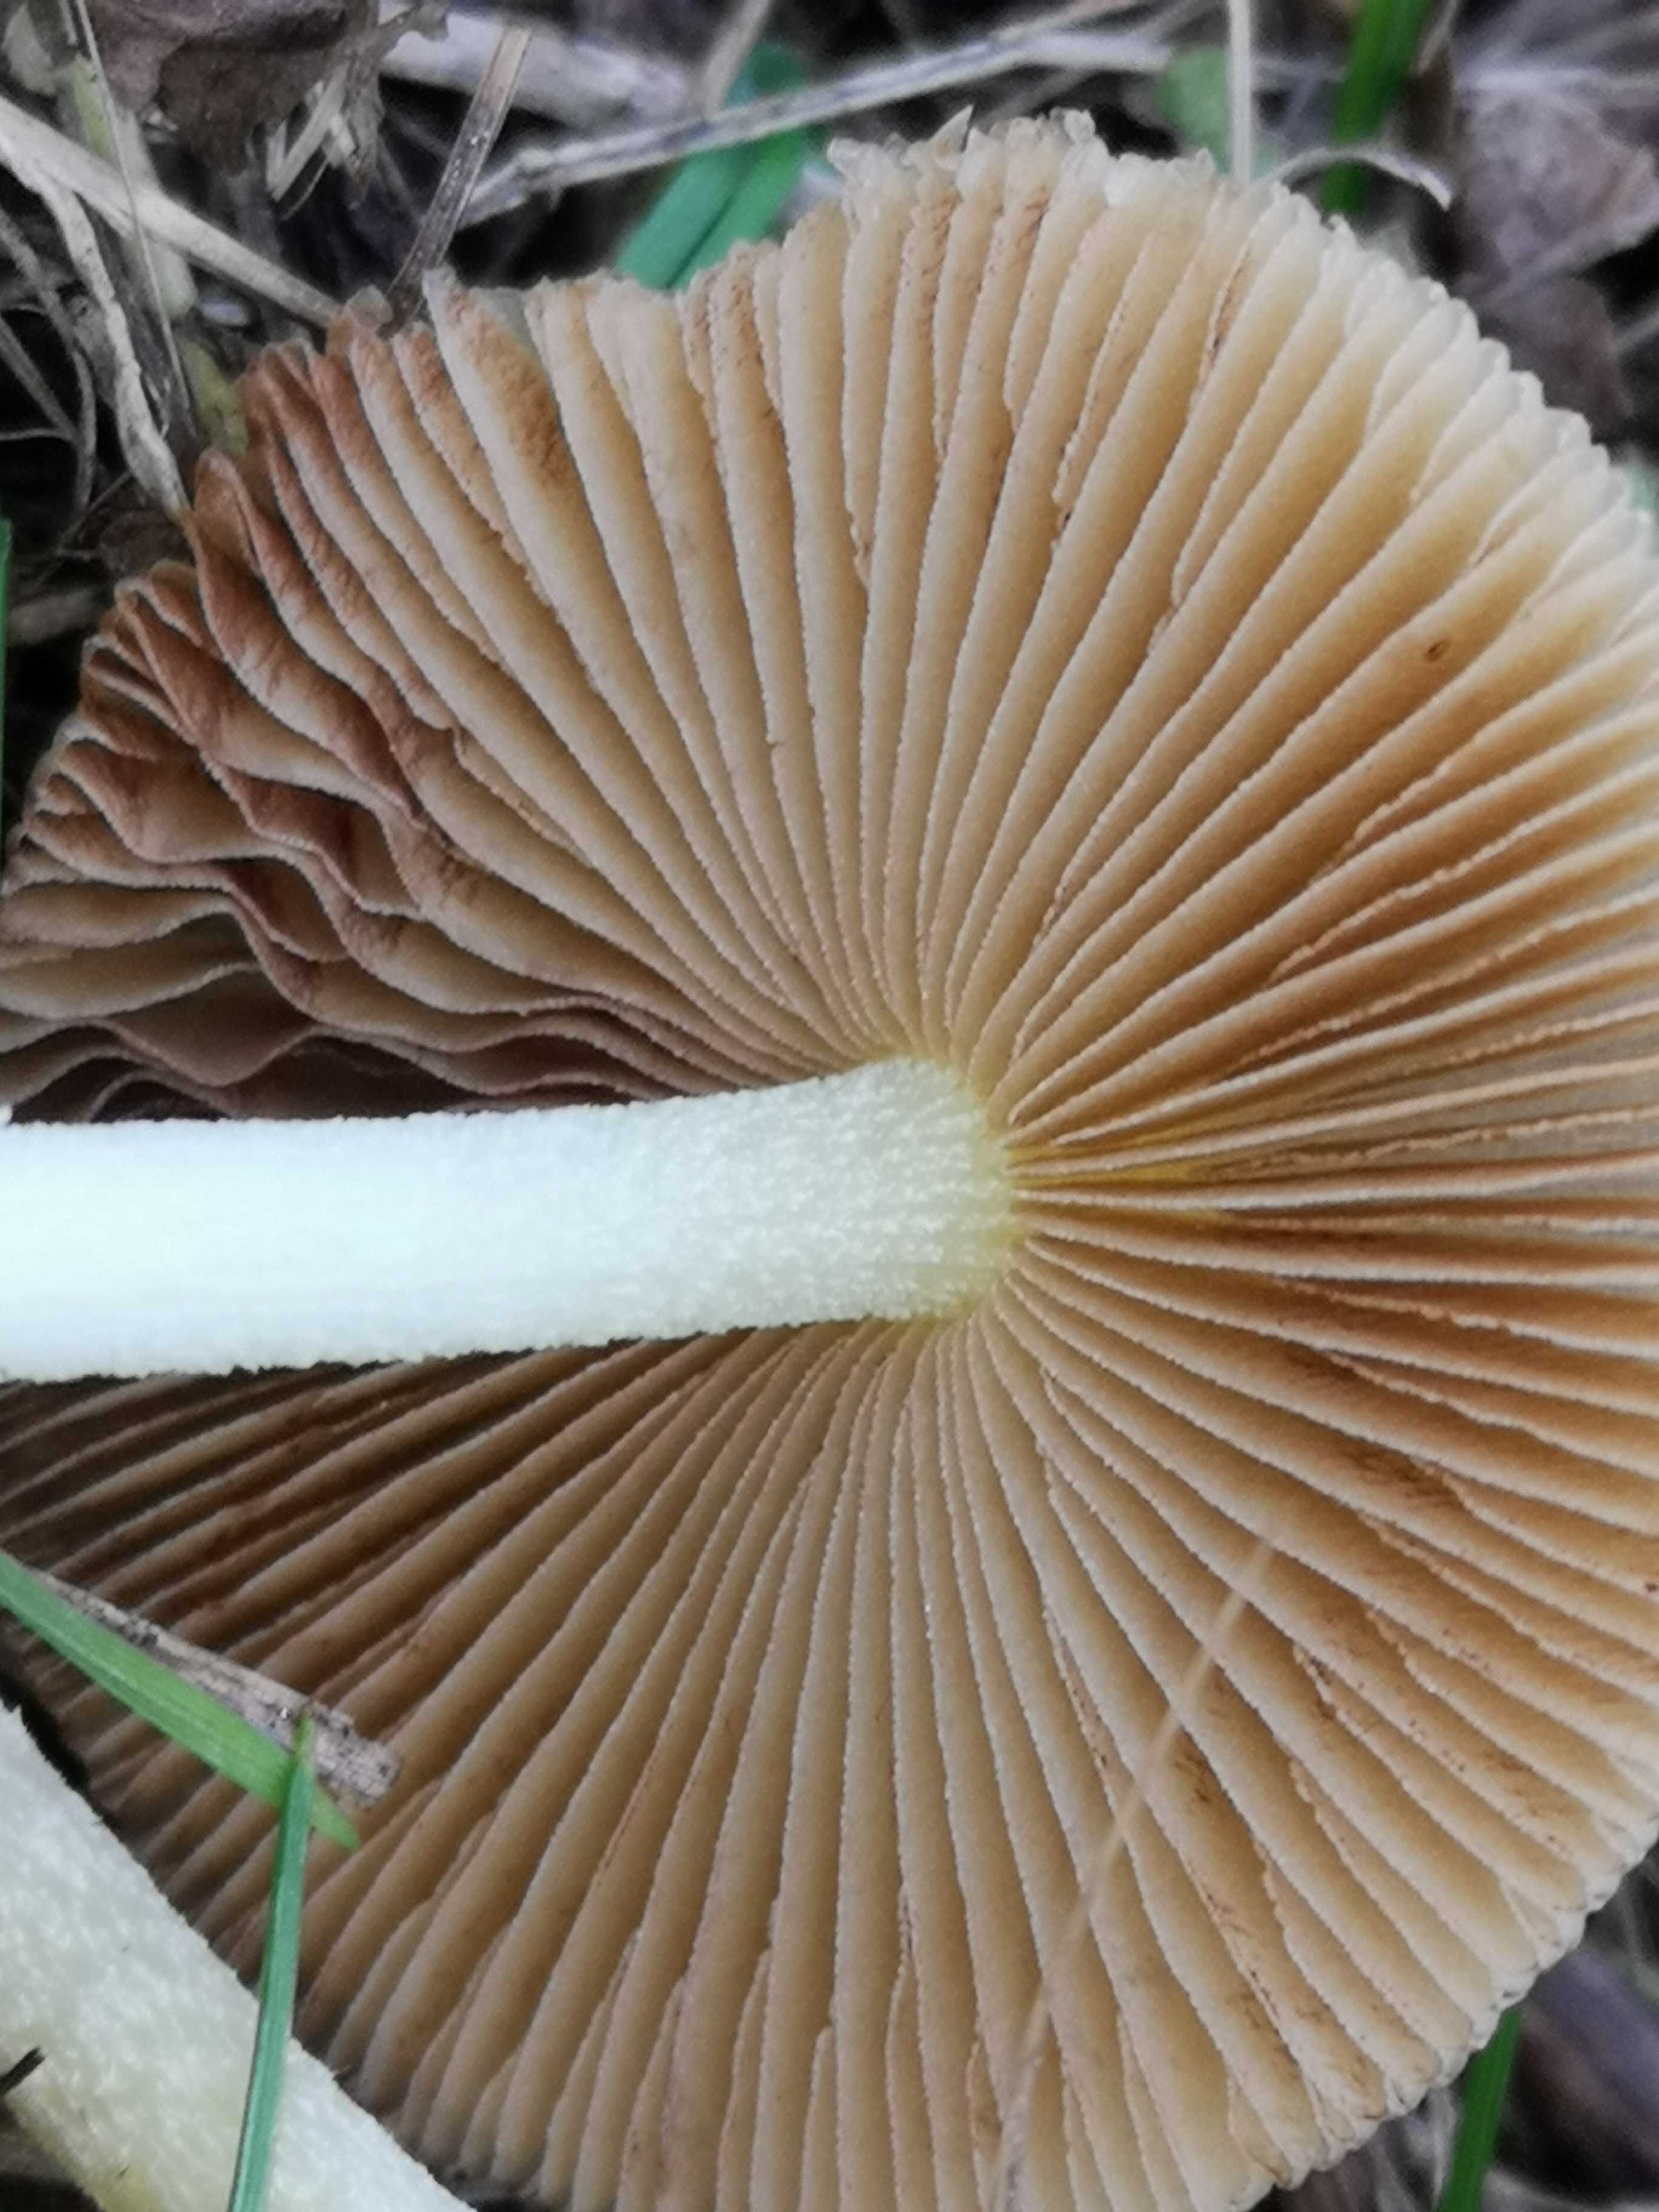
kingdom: Fungi
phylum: Basidiomycota
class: Agaricomycetes
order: Agaricales
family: Bolbitiaceae
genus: Bolbitius
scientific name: Bolbitius titubans
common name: almindelig gulhat
